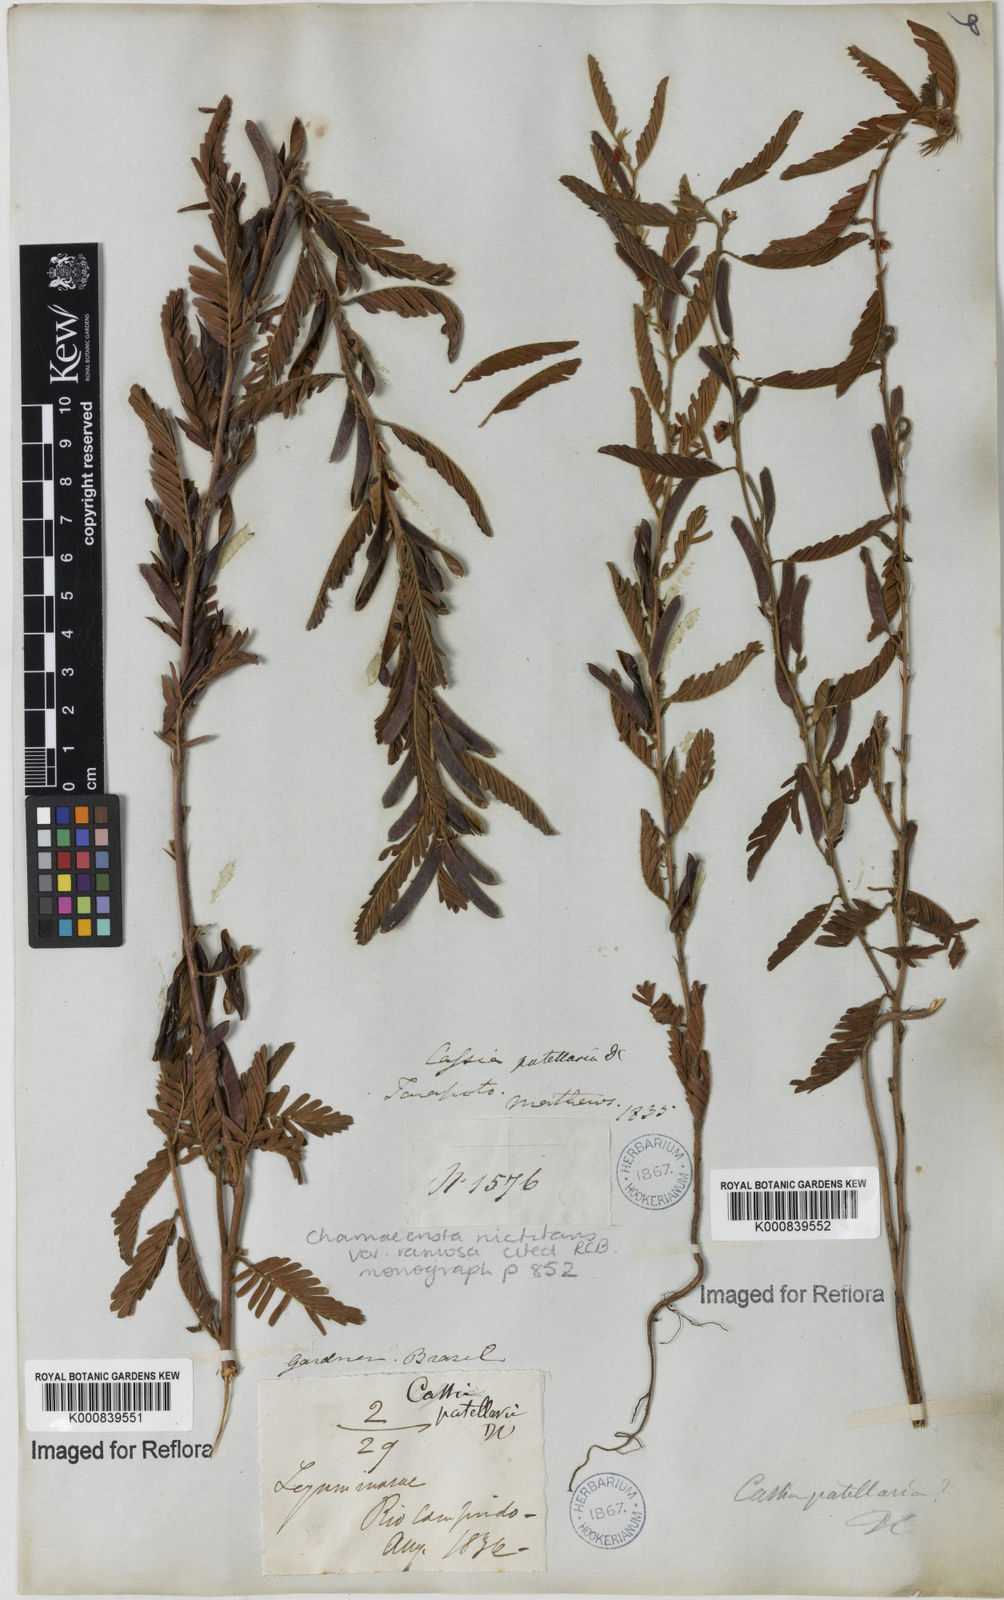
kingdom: Plantae
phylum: Tracheophyta
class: Magnoliopsida
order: Fabales
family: Fabaceae
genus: Chamaecrista
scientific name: Chamaecrista nictitans
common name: Sensitive cassia
